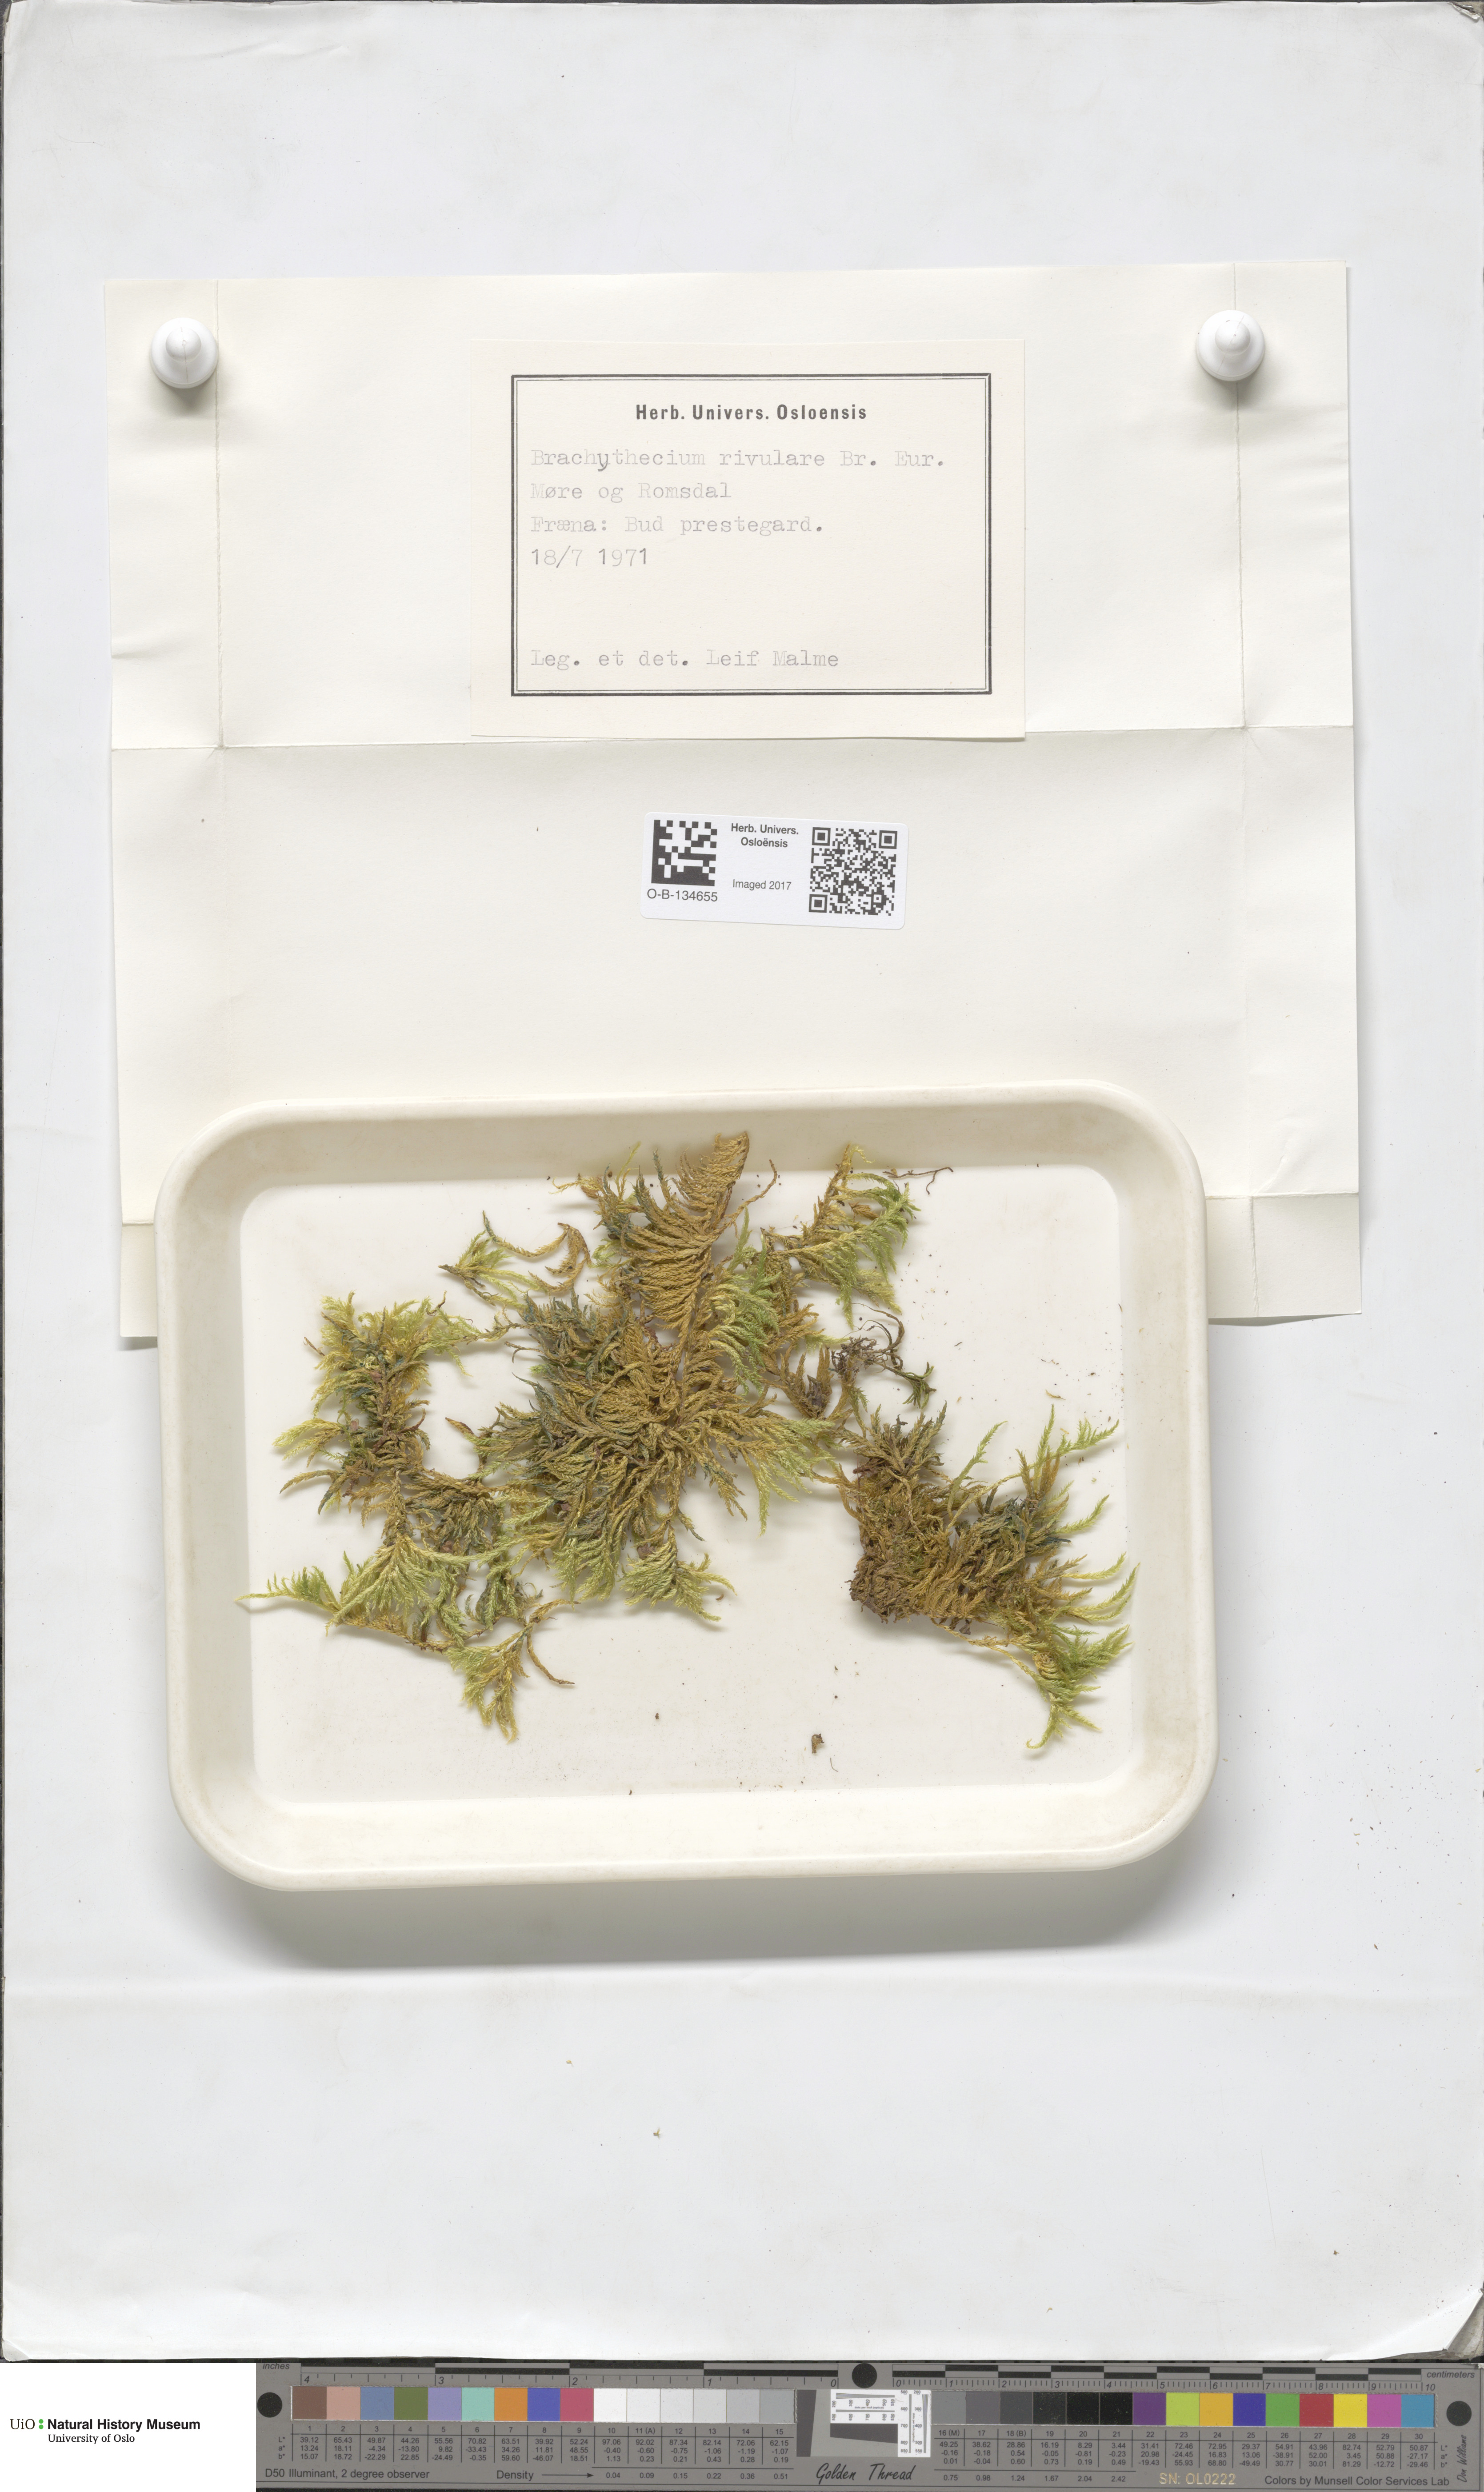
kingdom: Plantae
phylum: Bryophyta
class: Bryopsida
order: Hypnales
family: Brachytheciaceae
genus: Brachythecium
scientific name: Brachythecium rivulare
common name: River ragged moss
